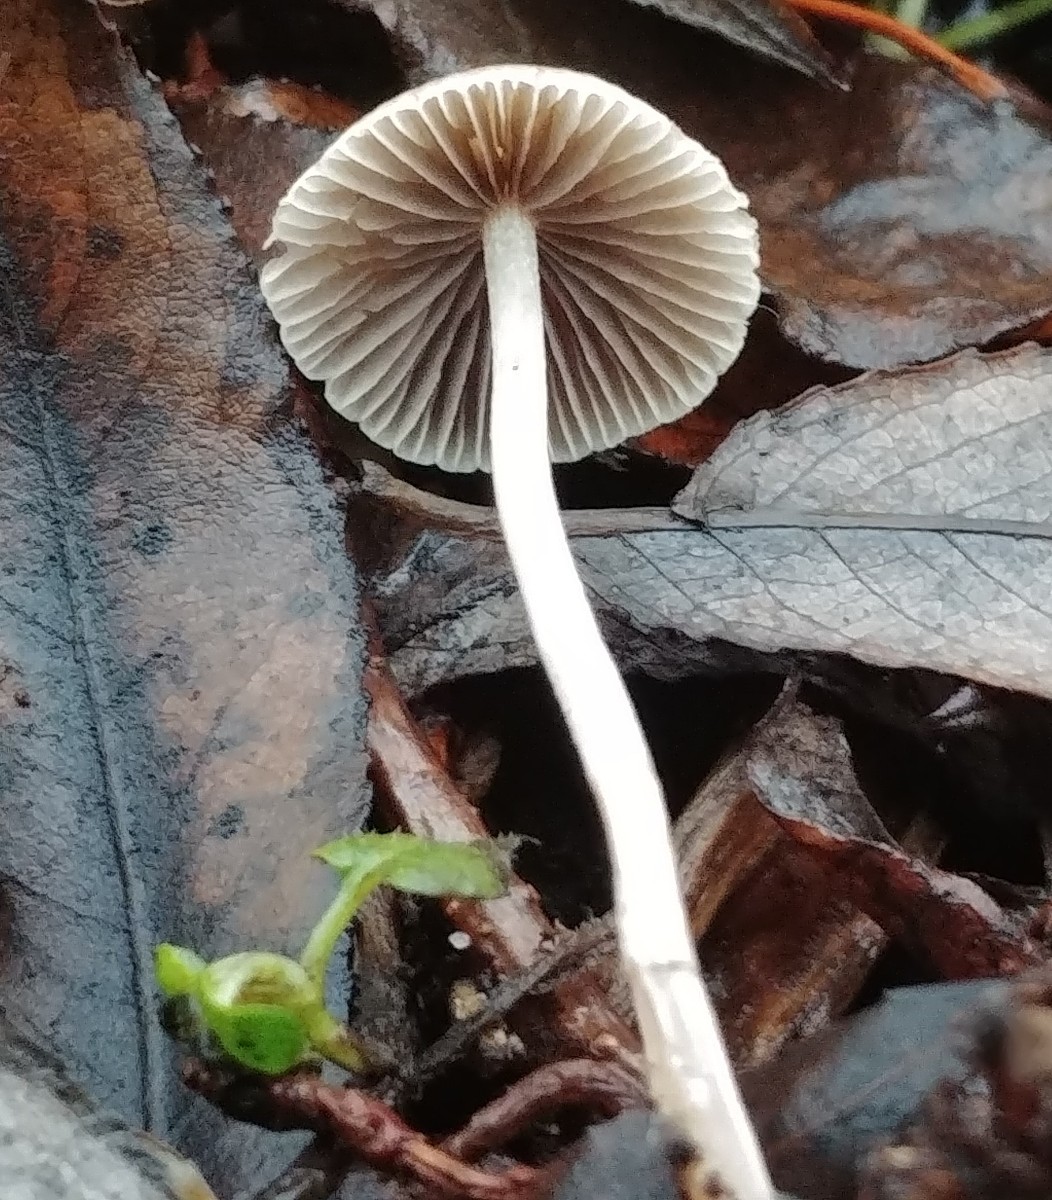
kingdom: Fungi
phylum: Basidiomycota
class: Agaricomycetes
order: Agaricales
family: Psathyrellaceae
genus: Psathyrella
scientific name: Psathyrella
